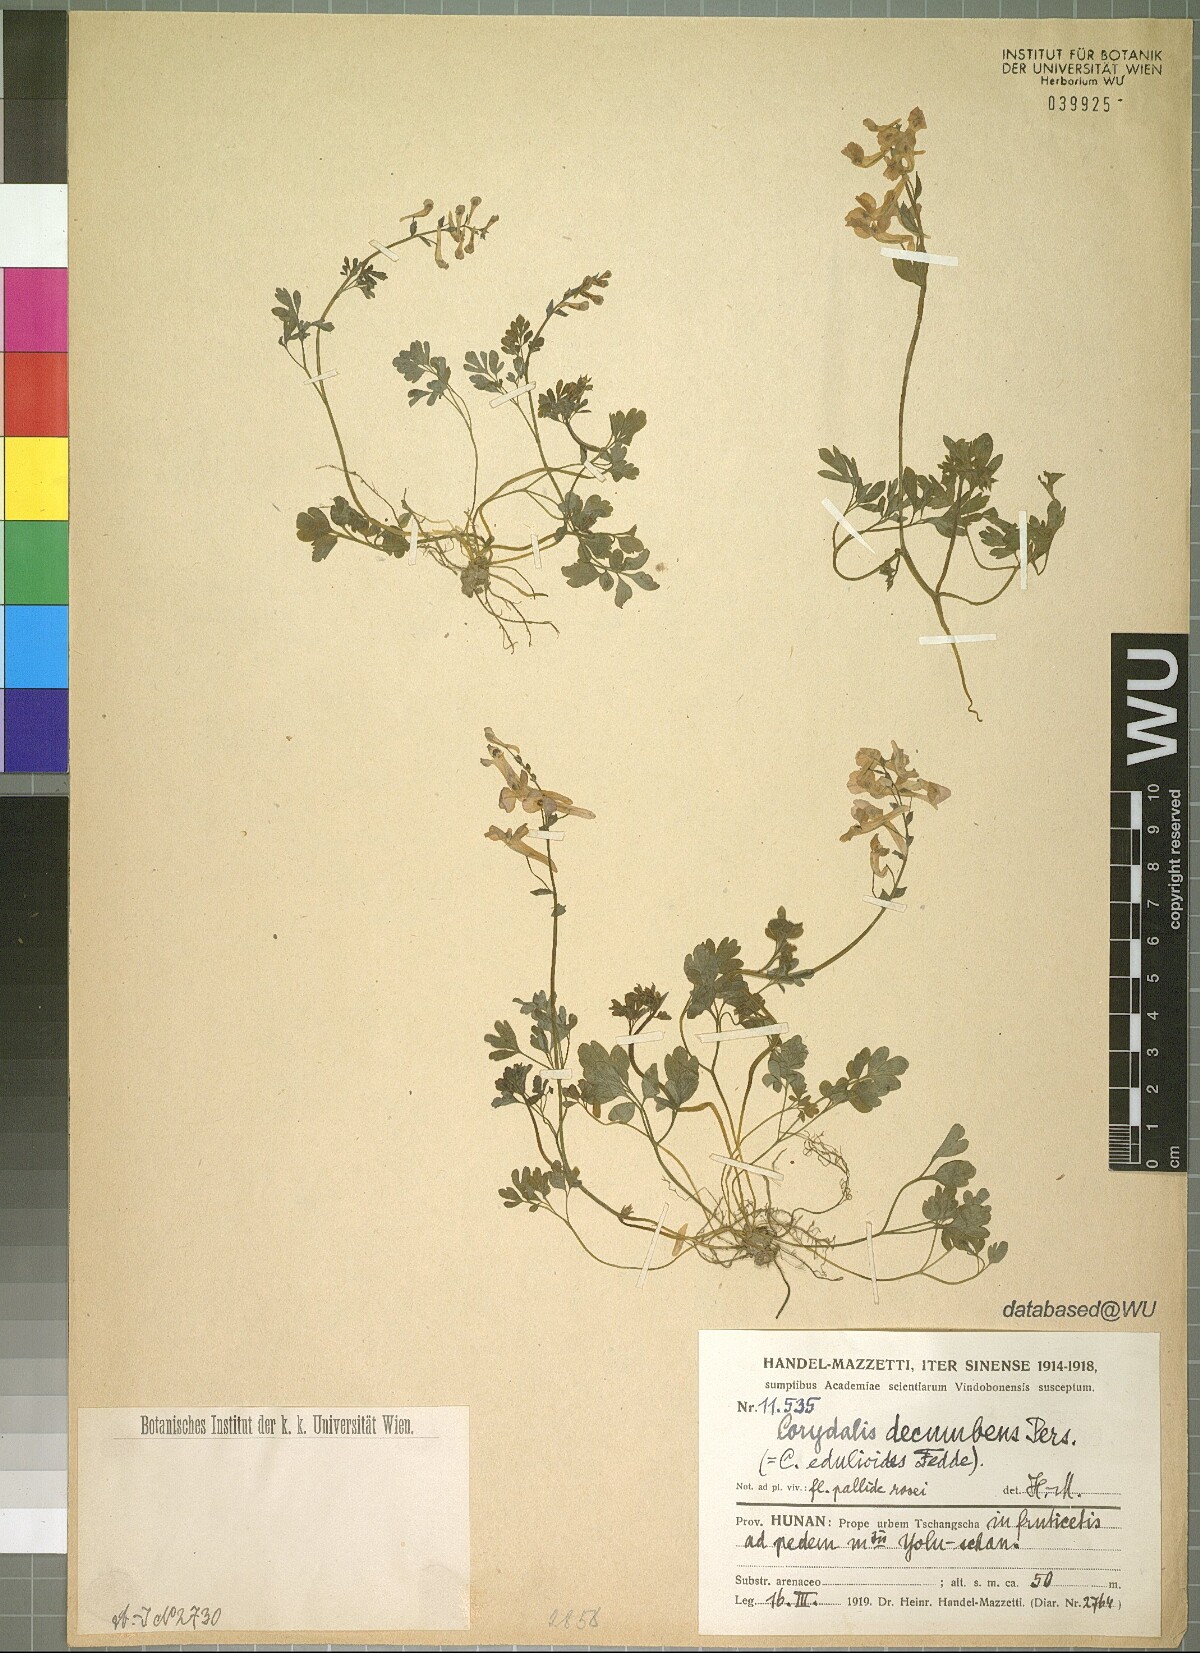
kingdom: Plantae
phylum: Tracheophyta
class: Magnoliopsida
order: Ranunculales
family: Papaveraceae
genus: Corydalis
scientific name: Corydalis decumbens
